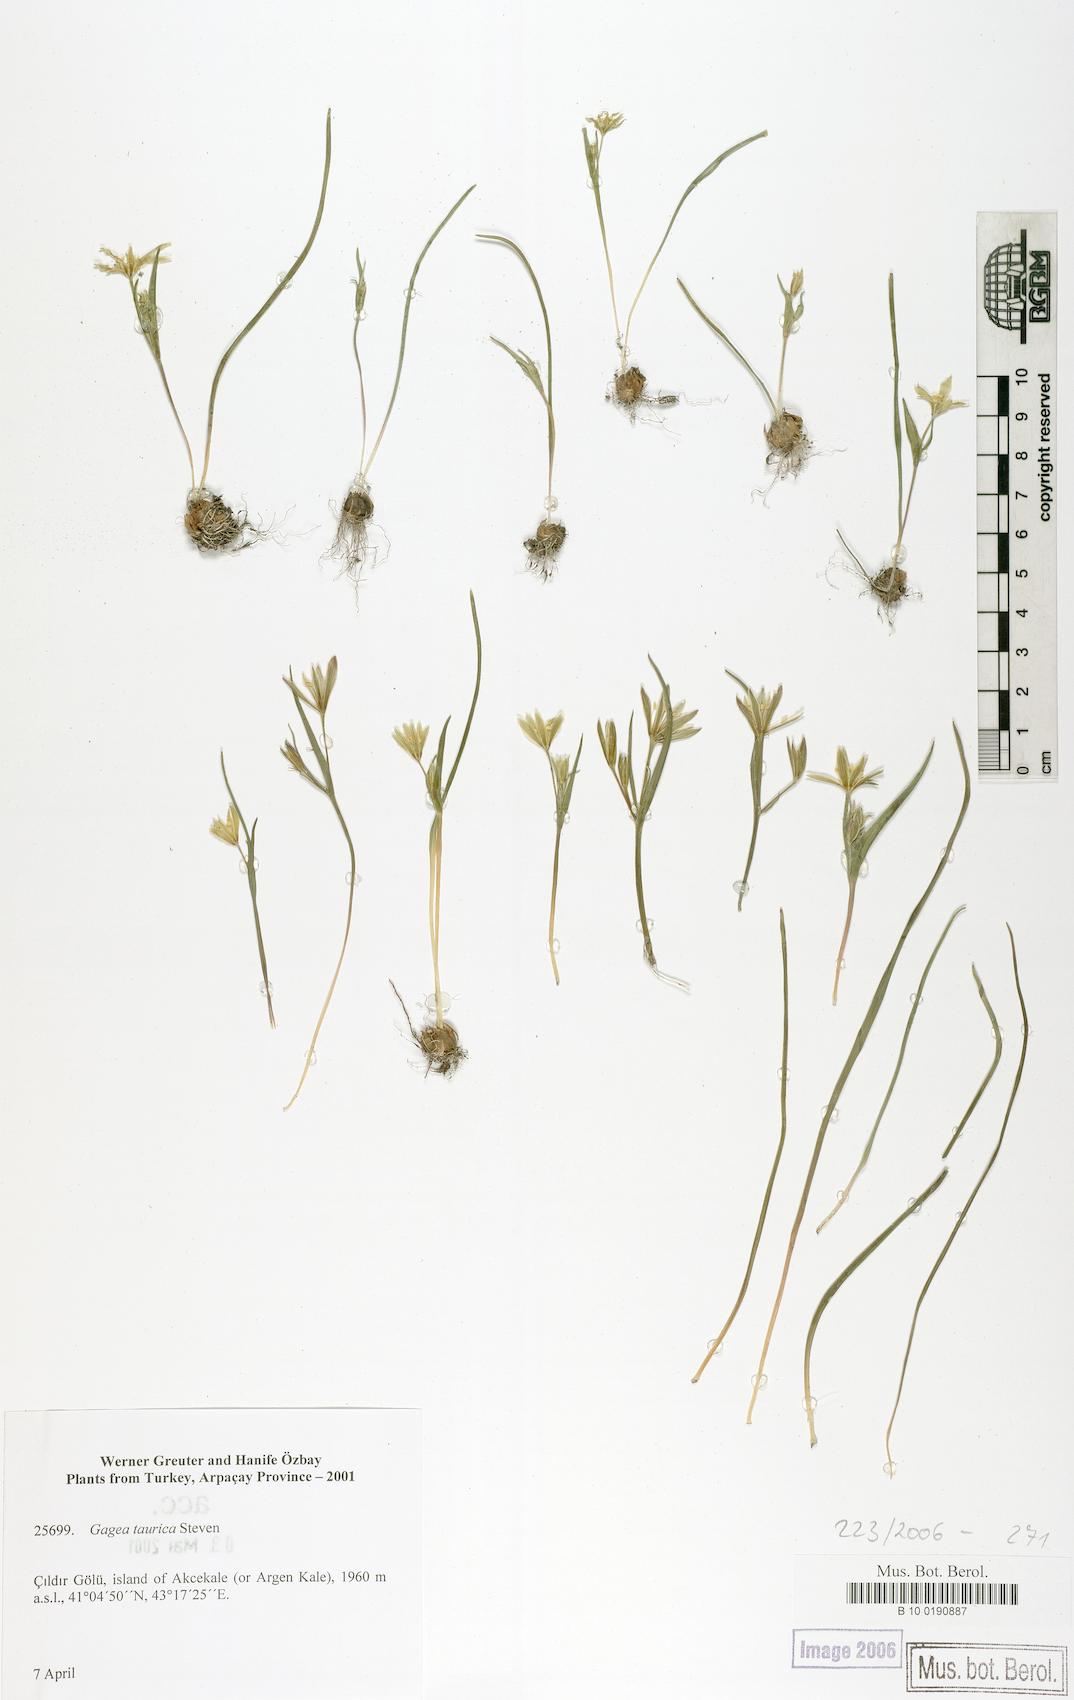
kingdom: Plantae
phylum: Tracheophyta
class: Liliopsida
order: Liliales
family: Liliaceae
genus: Gagea
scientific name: Gagea taurica
